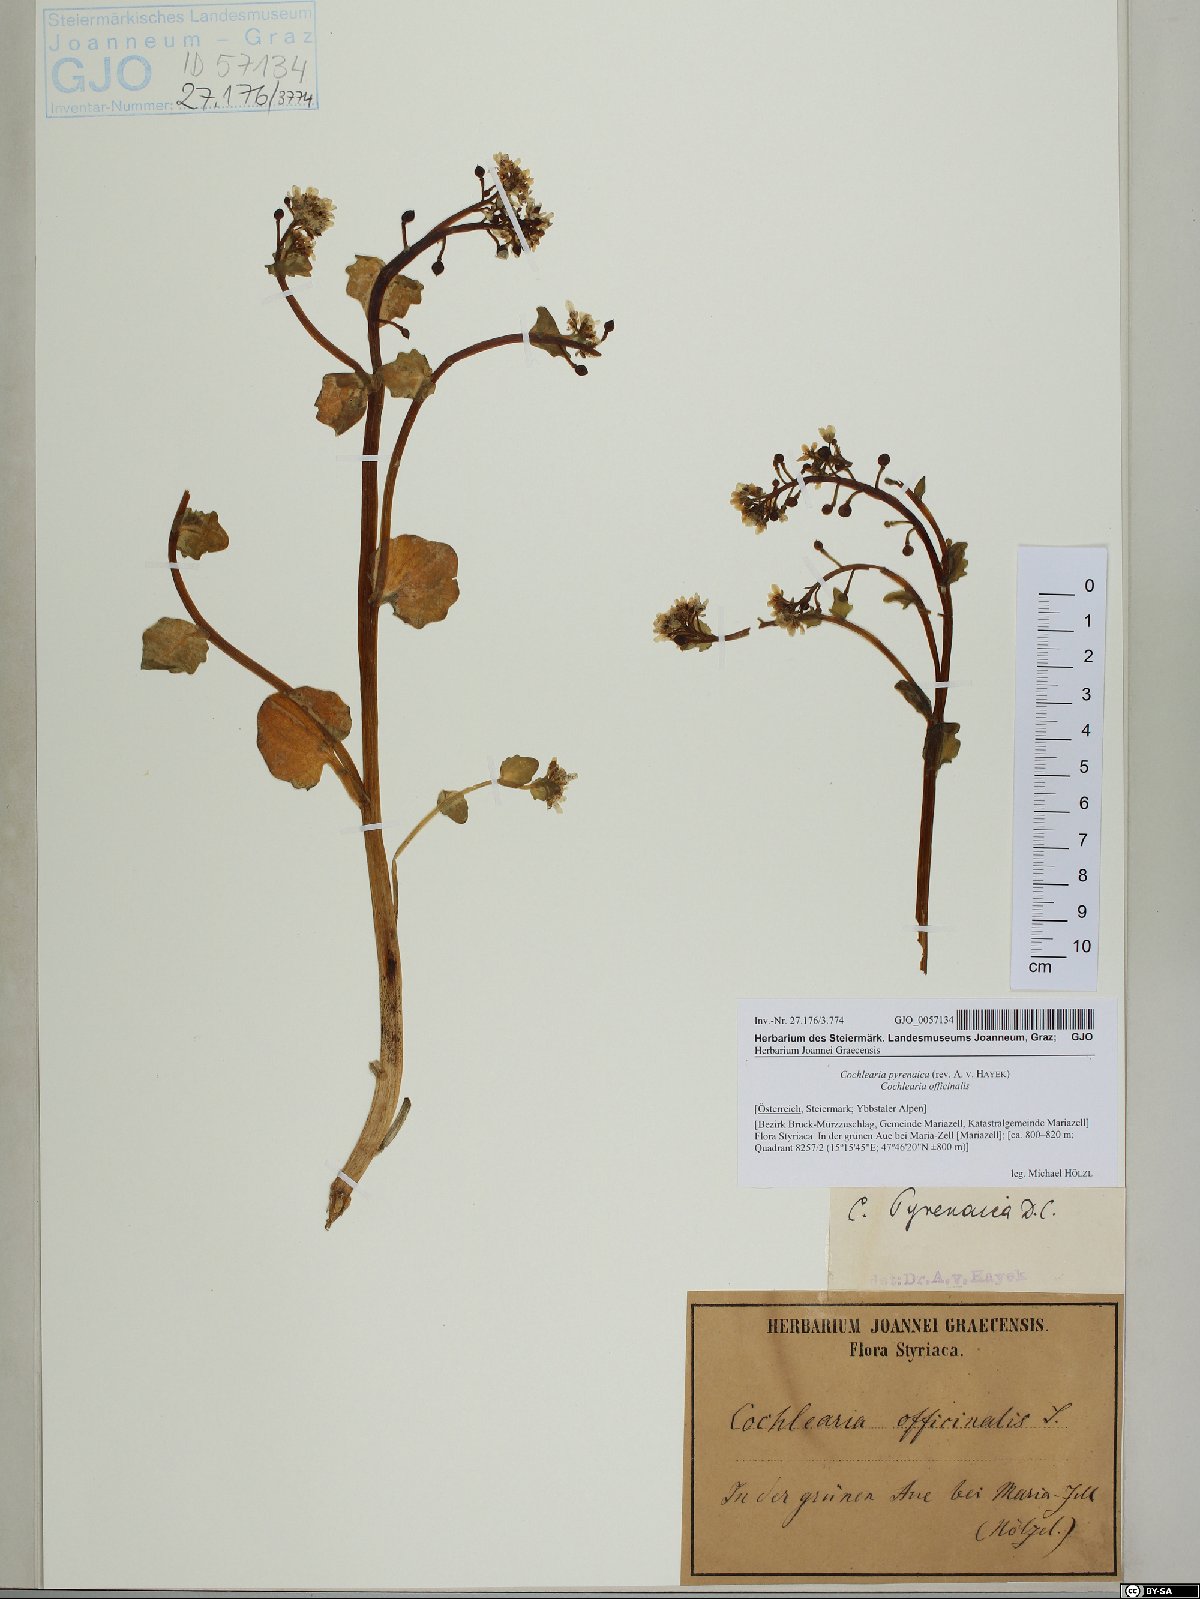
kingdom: Plantae
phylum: Tracheophyta
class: Magnoliopsida
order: Brassicales
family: Brassicaceae
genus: Cochlearia
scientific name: Cochlearia pyrenaica
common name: Upland scurvy-grass
